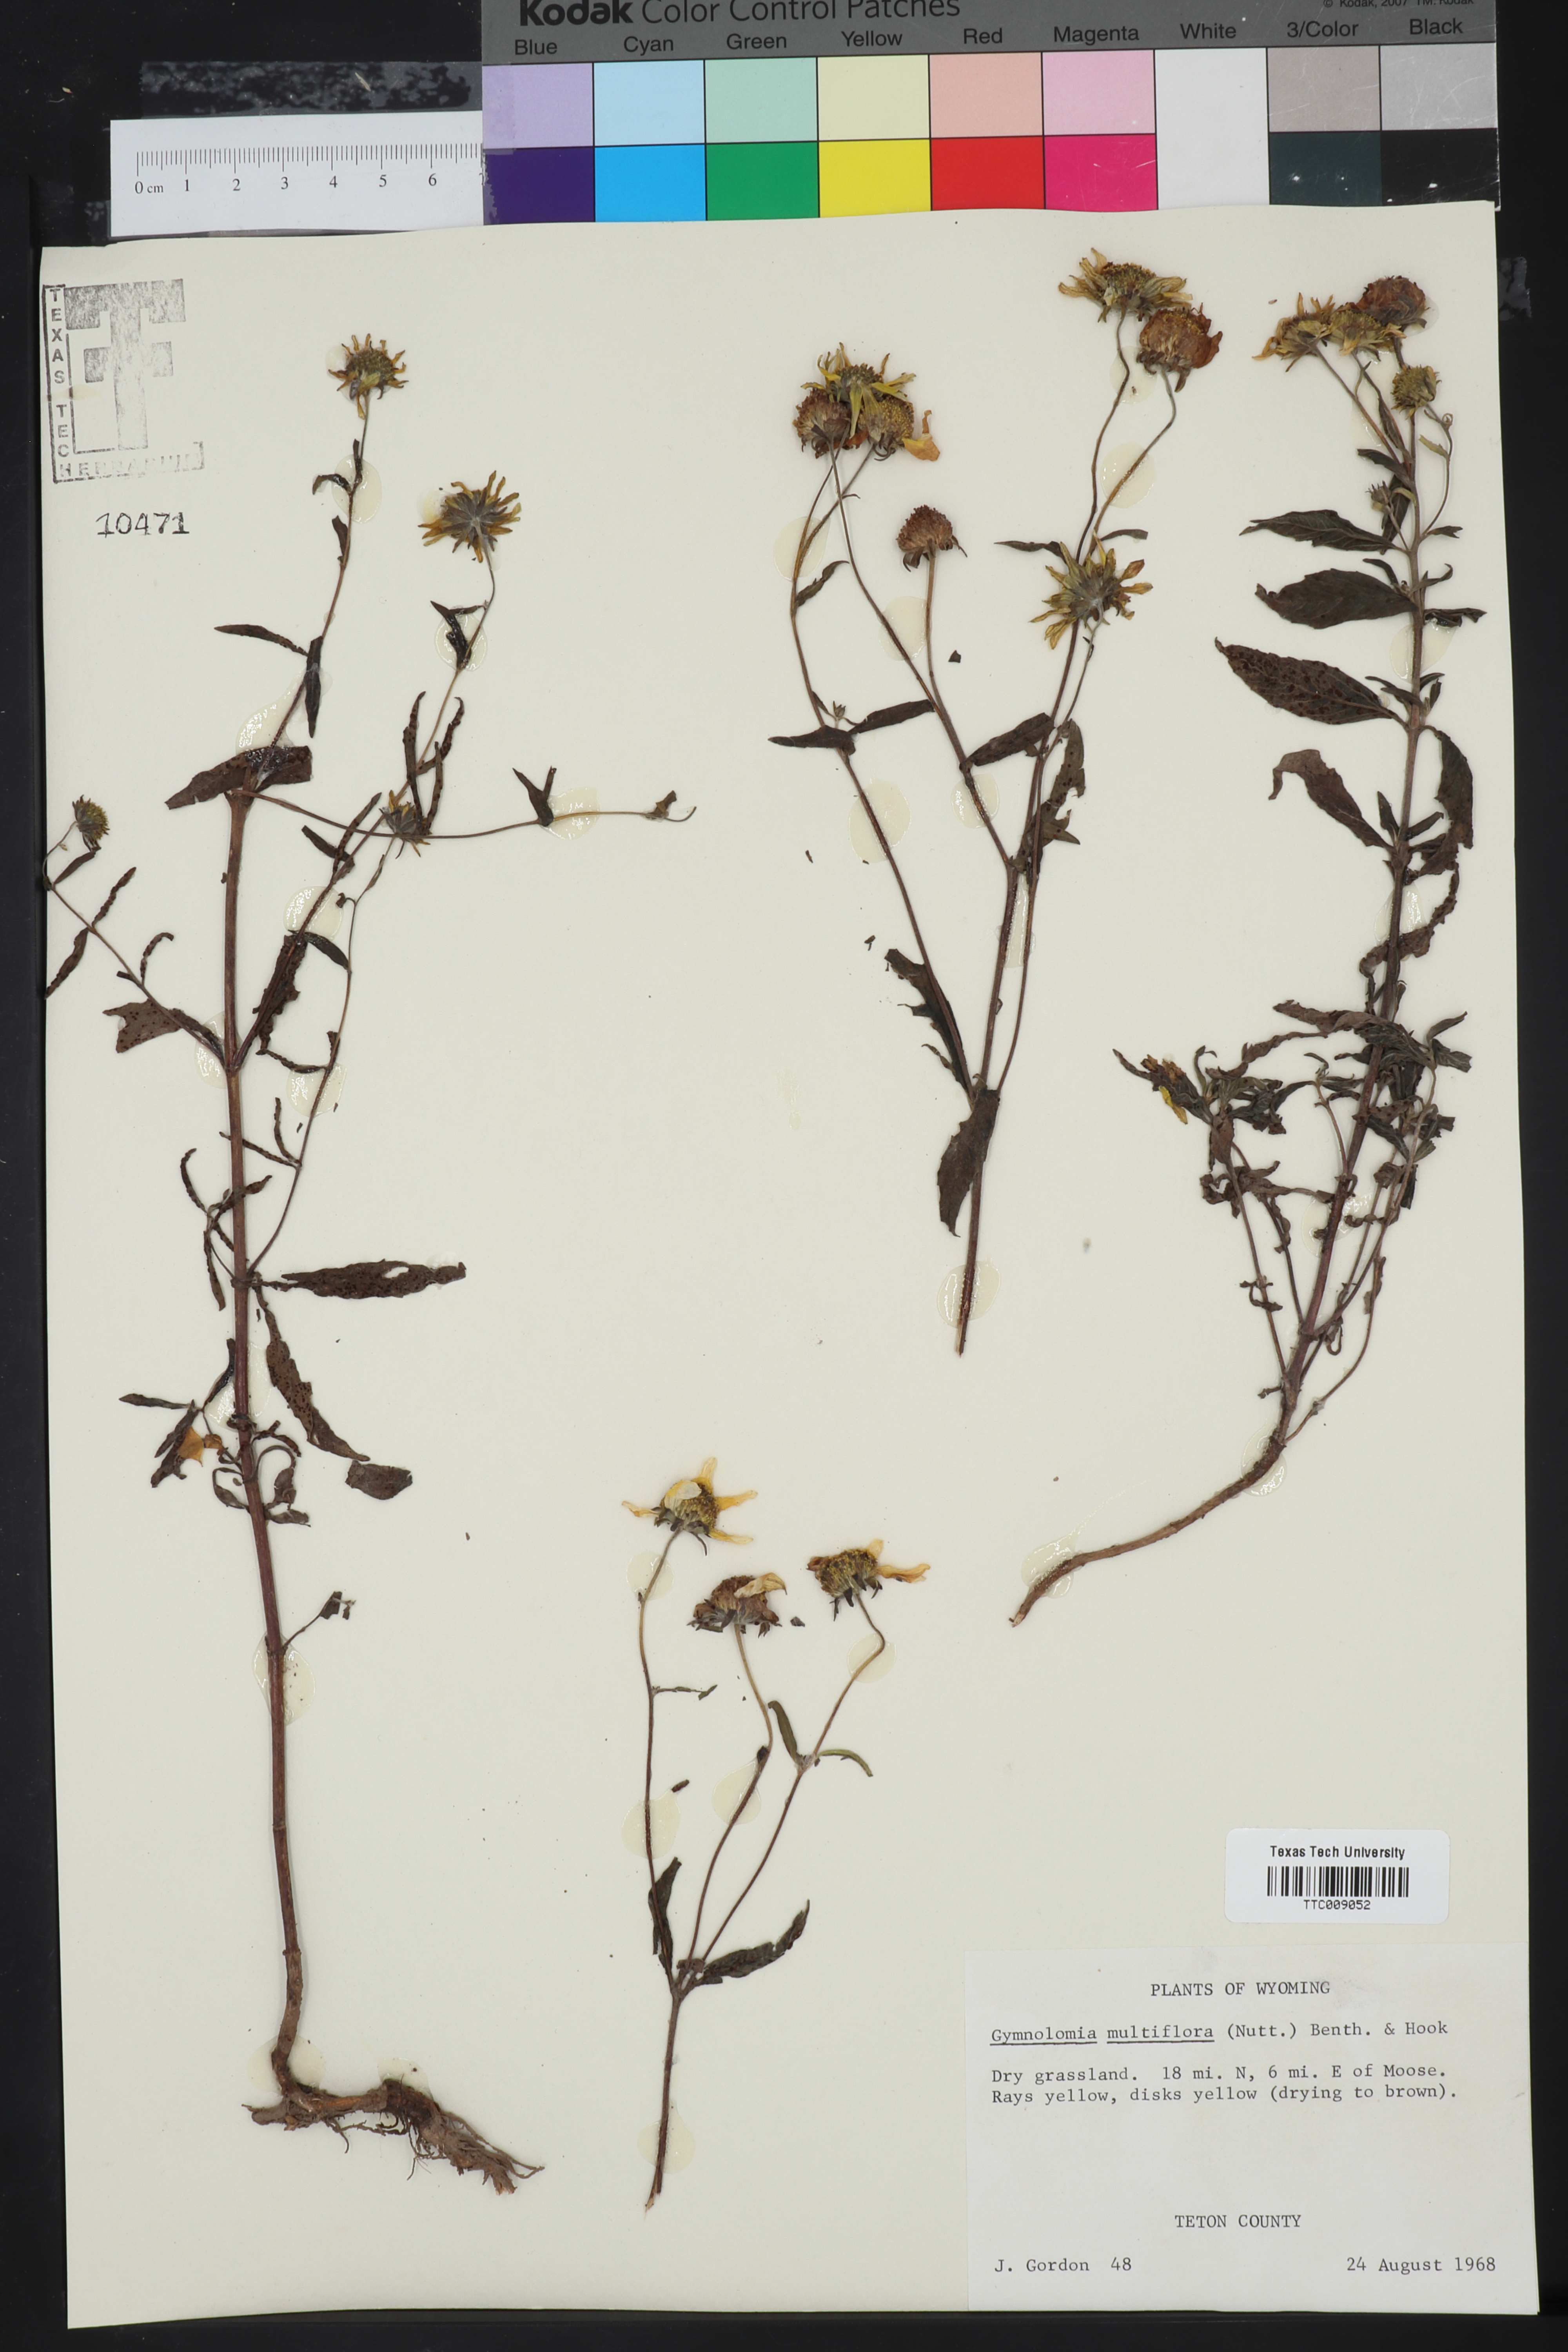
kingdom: Plantae
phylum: Tracheophyta
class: Magnoliopsida
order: Asterales
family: Asteraceae
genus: Heliomeris
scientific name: Heliomeris multiflora
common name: Showy goldeneye
